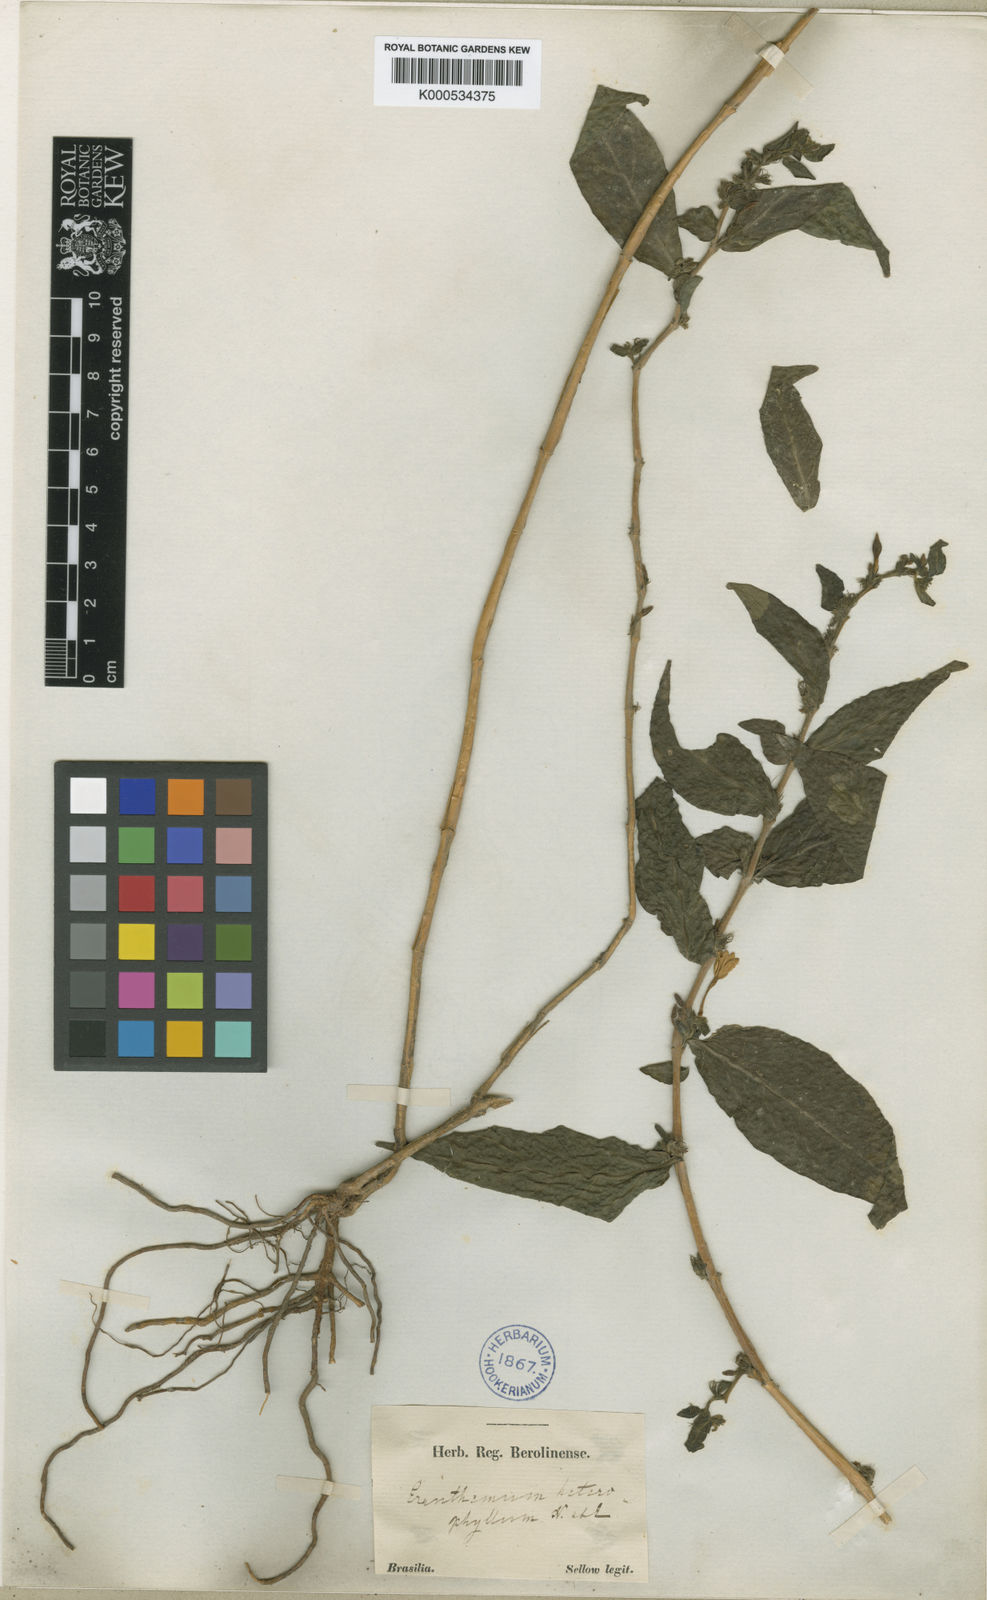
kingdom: Plantae
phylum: Tracheophyta
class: Magnoliopsida
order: Lamiales
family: Acanthaceae
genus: Pseuderanthemum
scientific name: Pseuderanthemum heterophyllum
